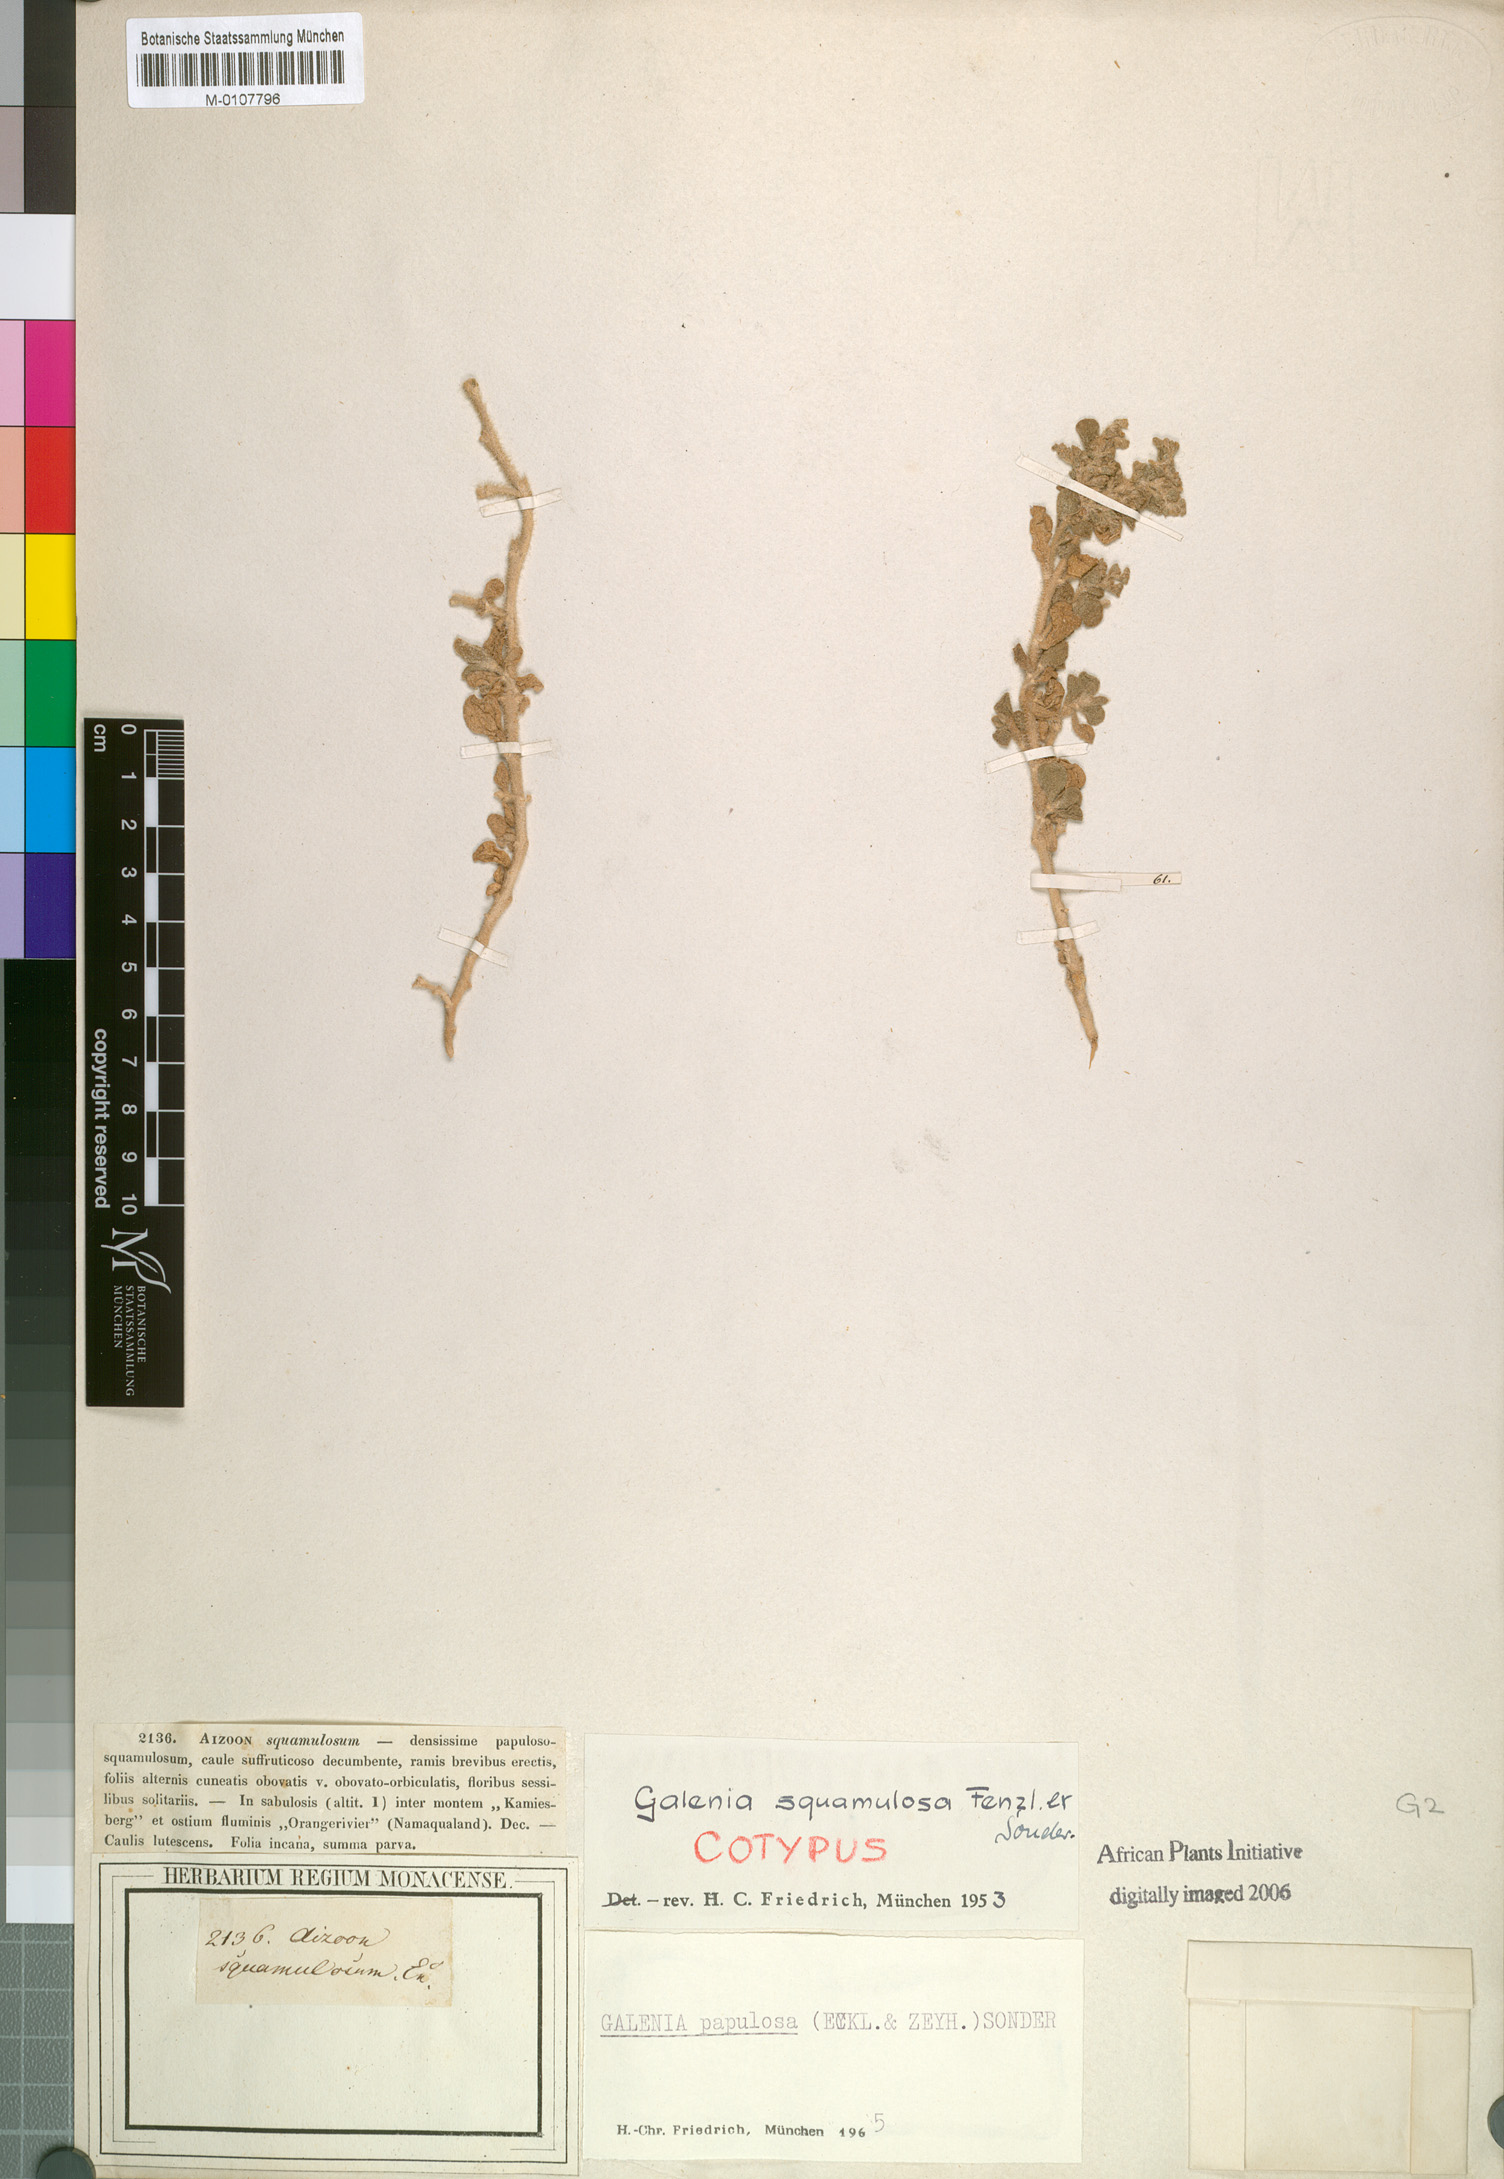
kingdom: Plantae
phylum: Tracheophyta
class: Magnoliopsida
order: Caryophyllales
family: Aizoaceae
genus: Aizoon
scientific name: Aizoon papulosum
